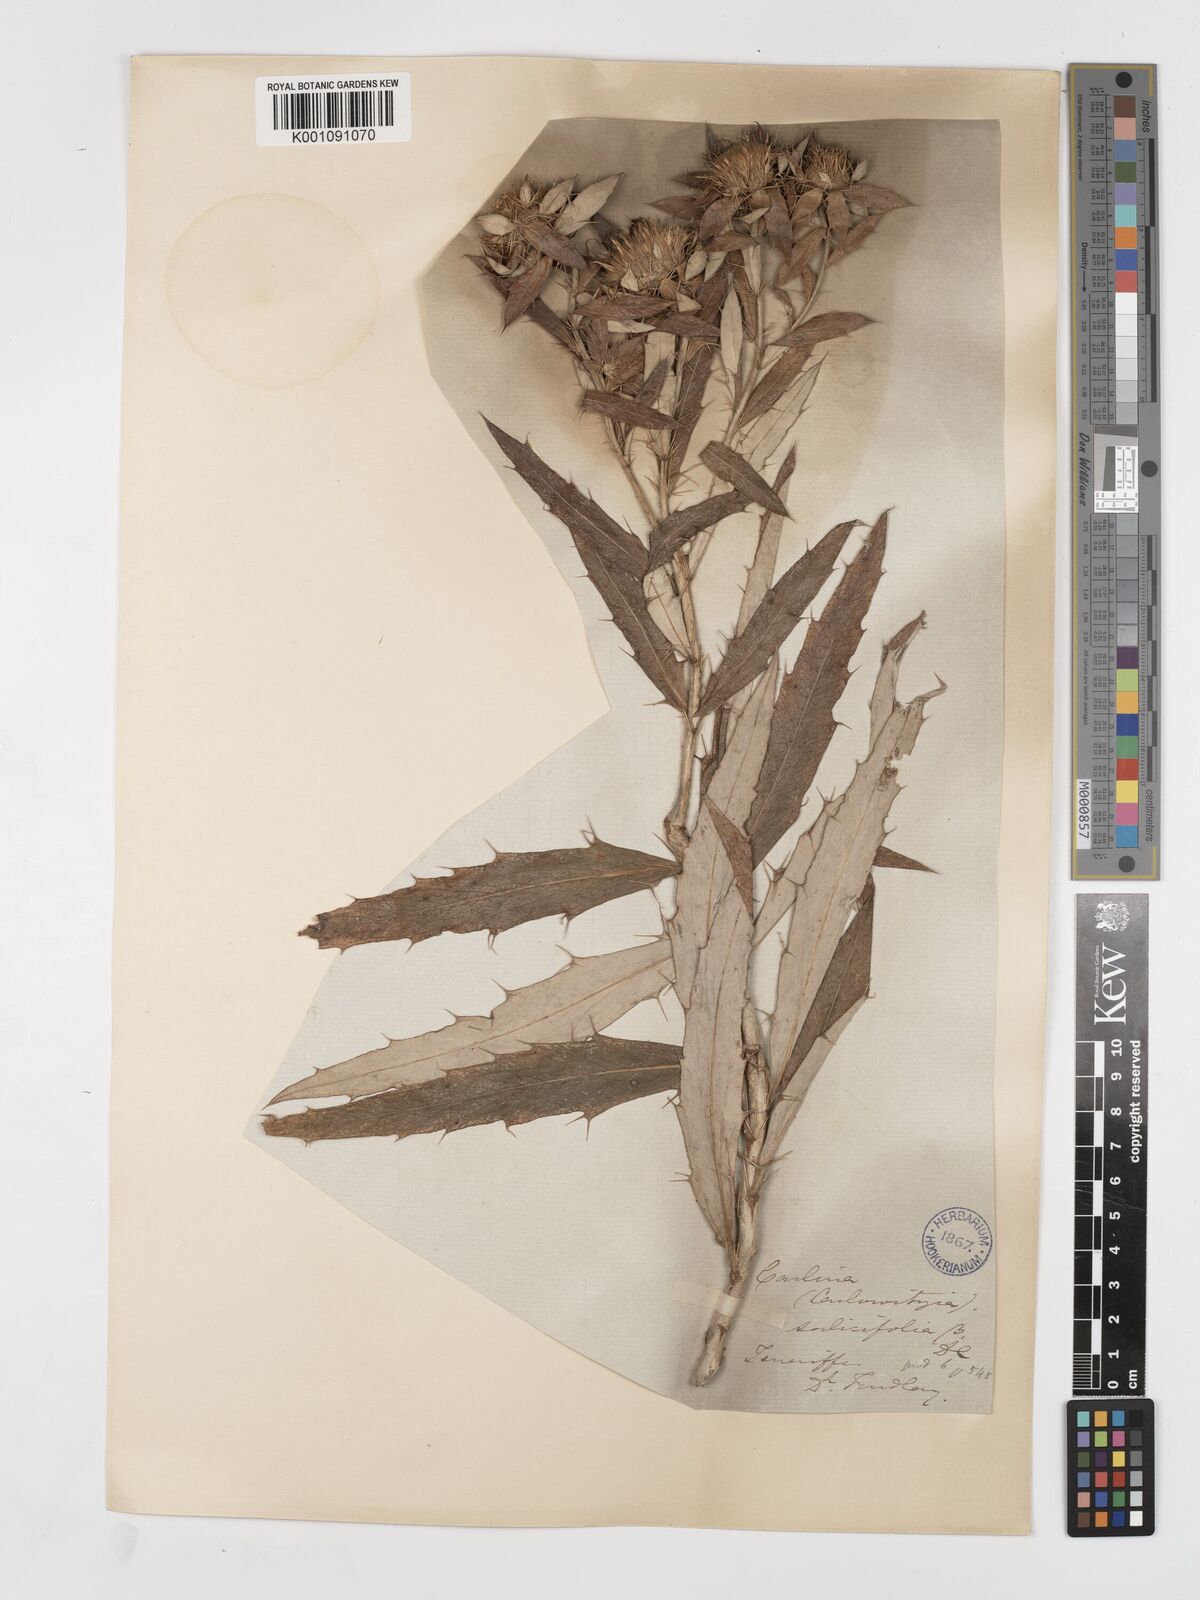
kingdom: Plantae
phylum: Tracheophyta
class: Magnoliopsida
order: Asterales
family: Asteraceae
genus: Carlina
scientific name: Carlina salicifolia
